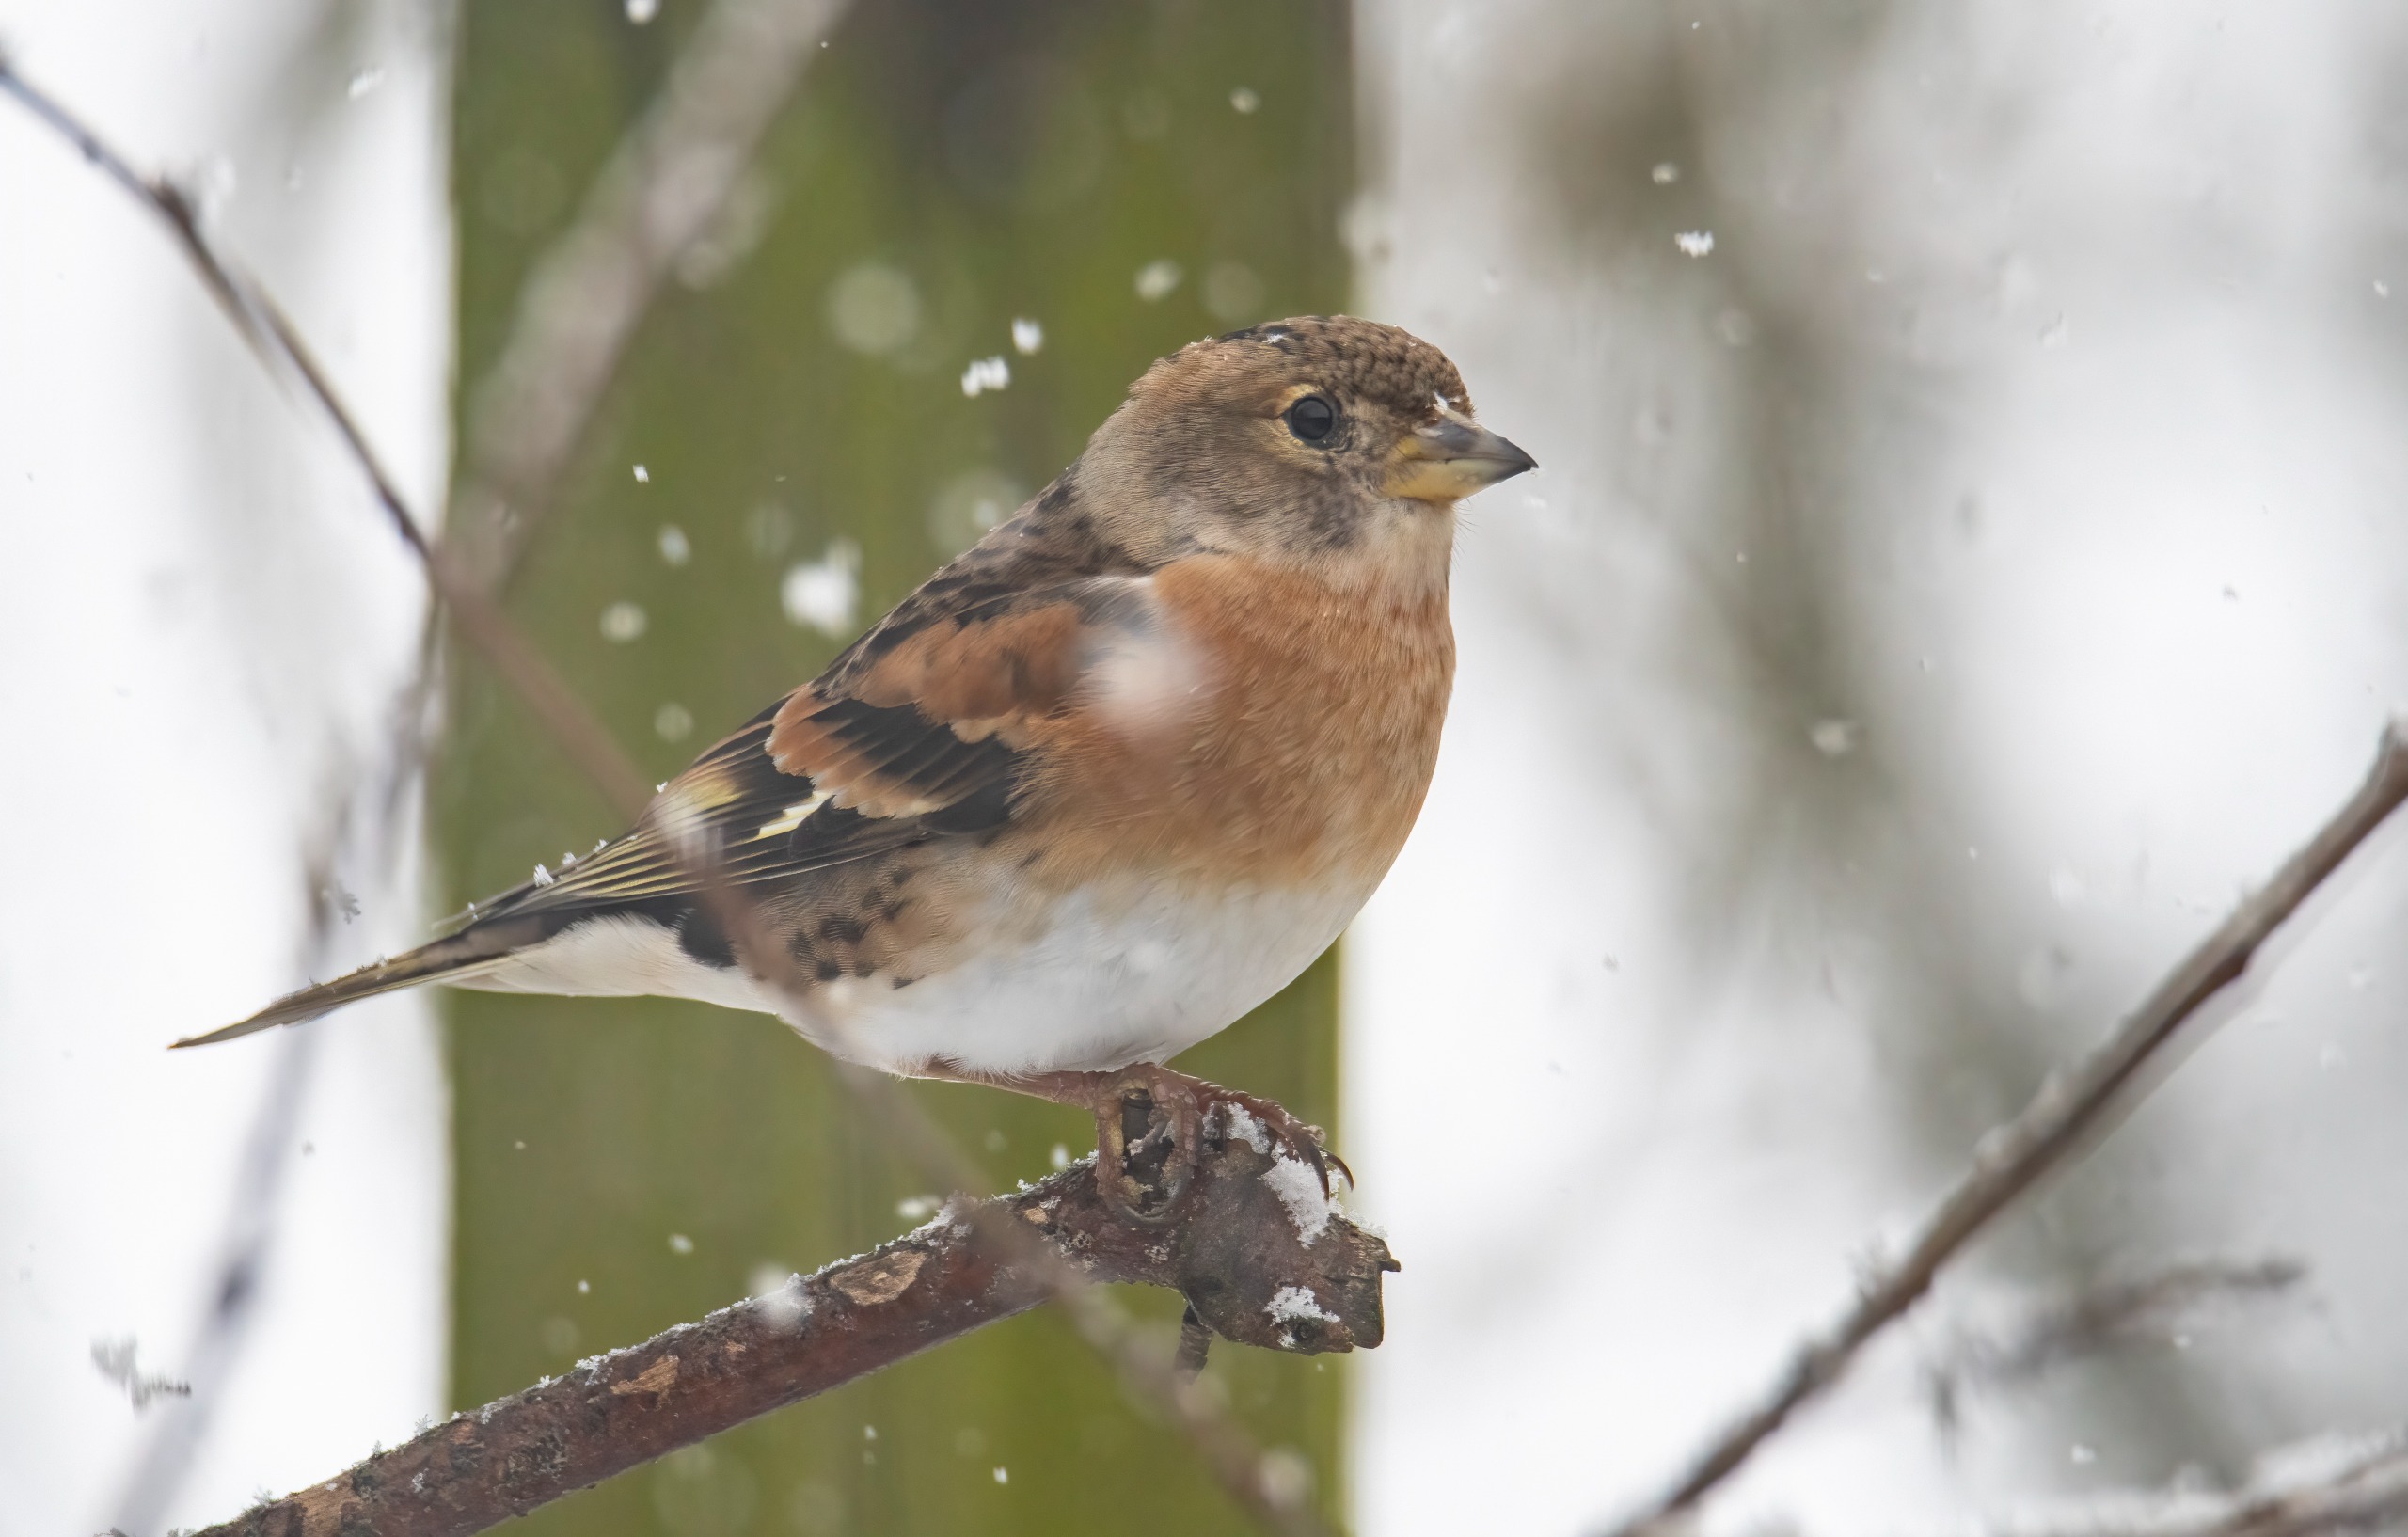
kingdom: Animalia
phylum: Chordata
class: Aves
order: Passeriformes
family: Fringillidae
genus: Fringilla
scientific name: Fringilla montifringilla
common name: Kvækerfinke
